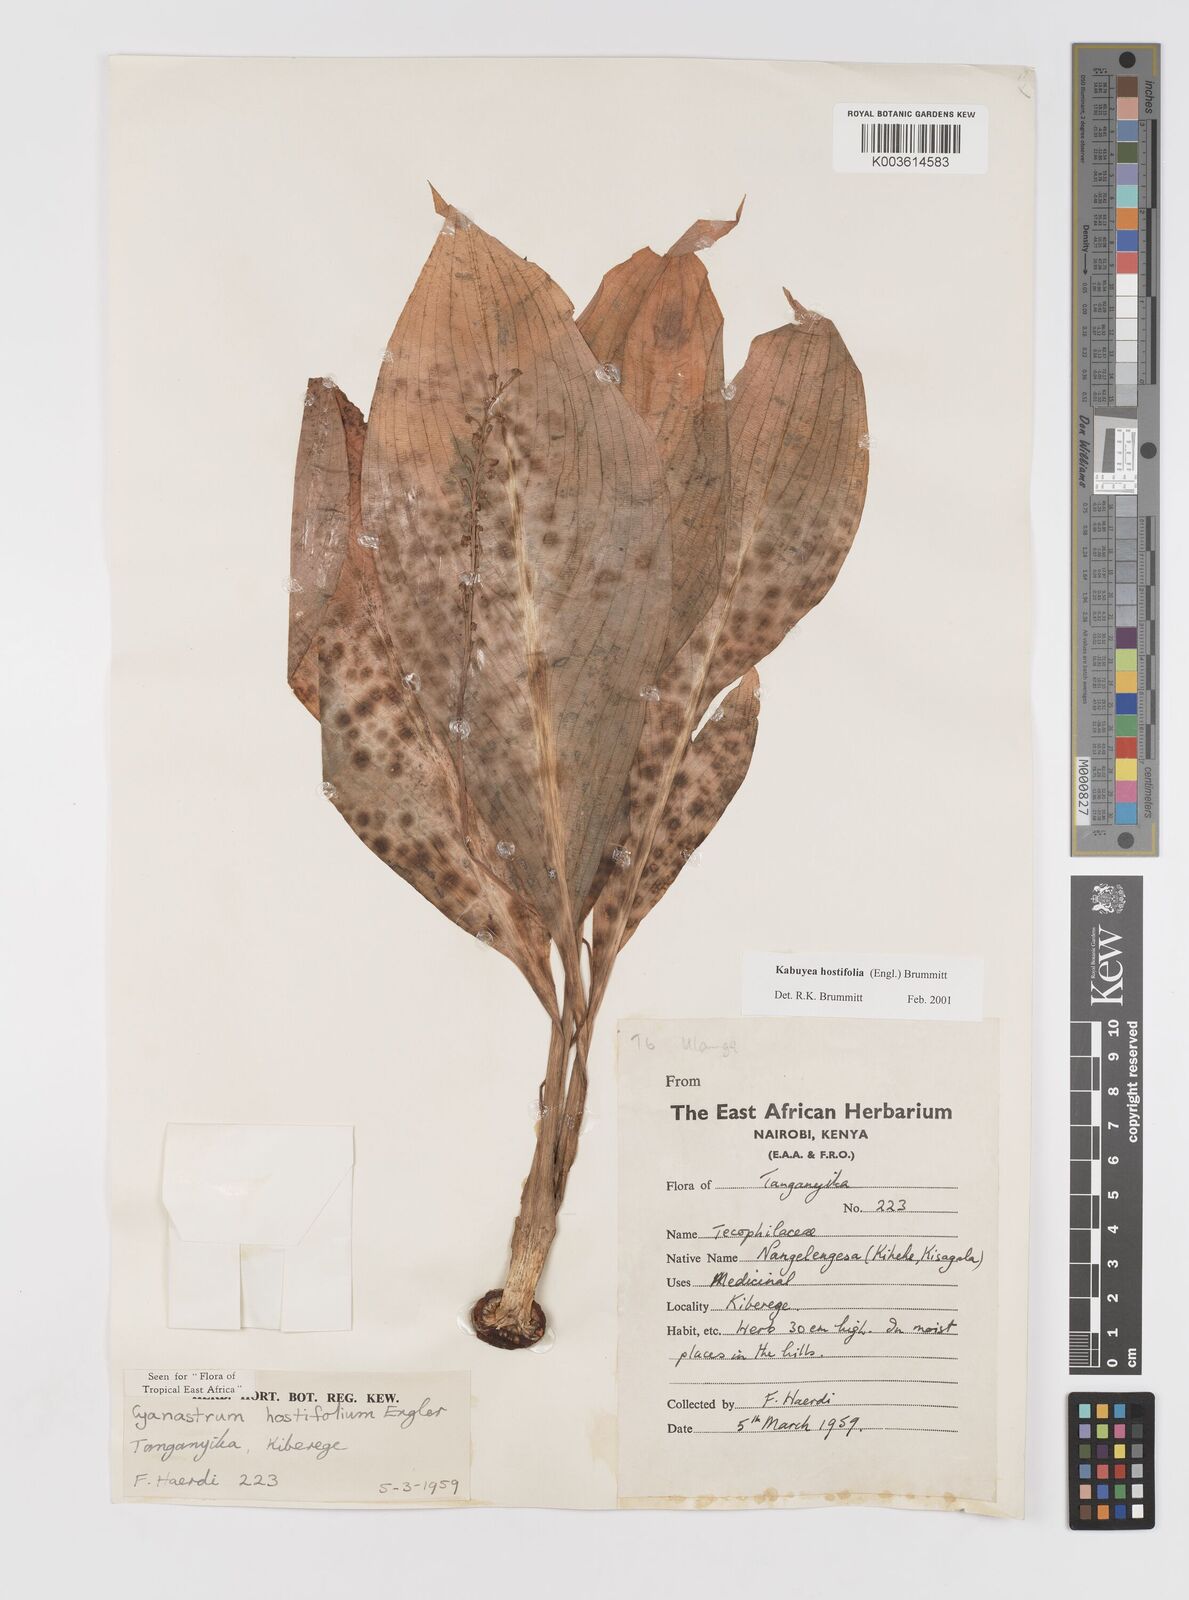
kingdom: Plantae
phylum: Tracheophyta
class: Liliopsida
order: Asparagales
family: Tecophilaeaceae
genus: Kabuyea
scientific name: Kabuyea hostifolia
